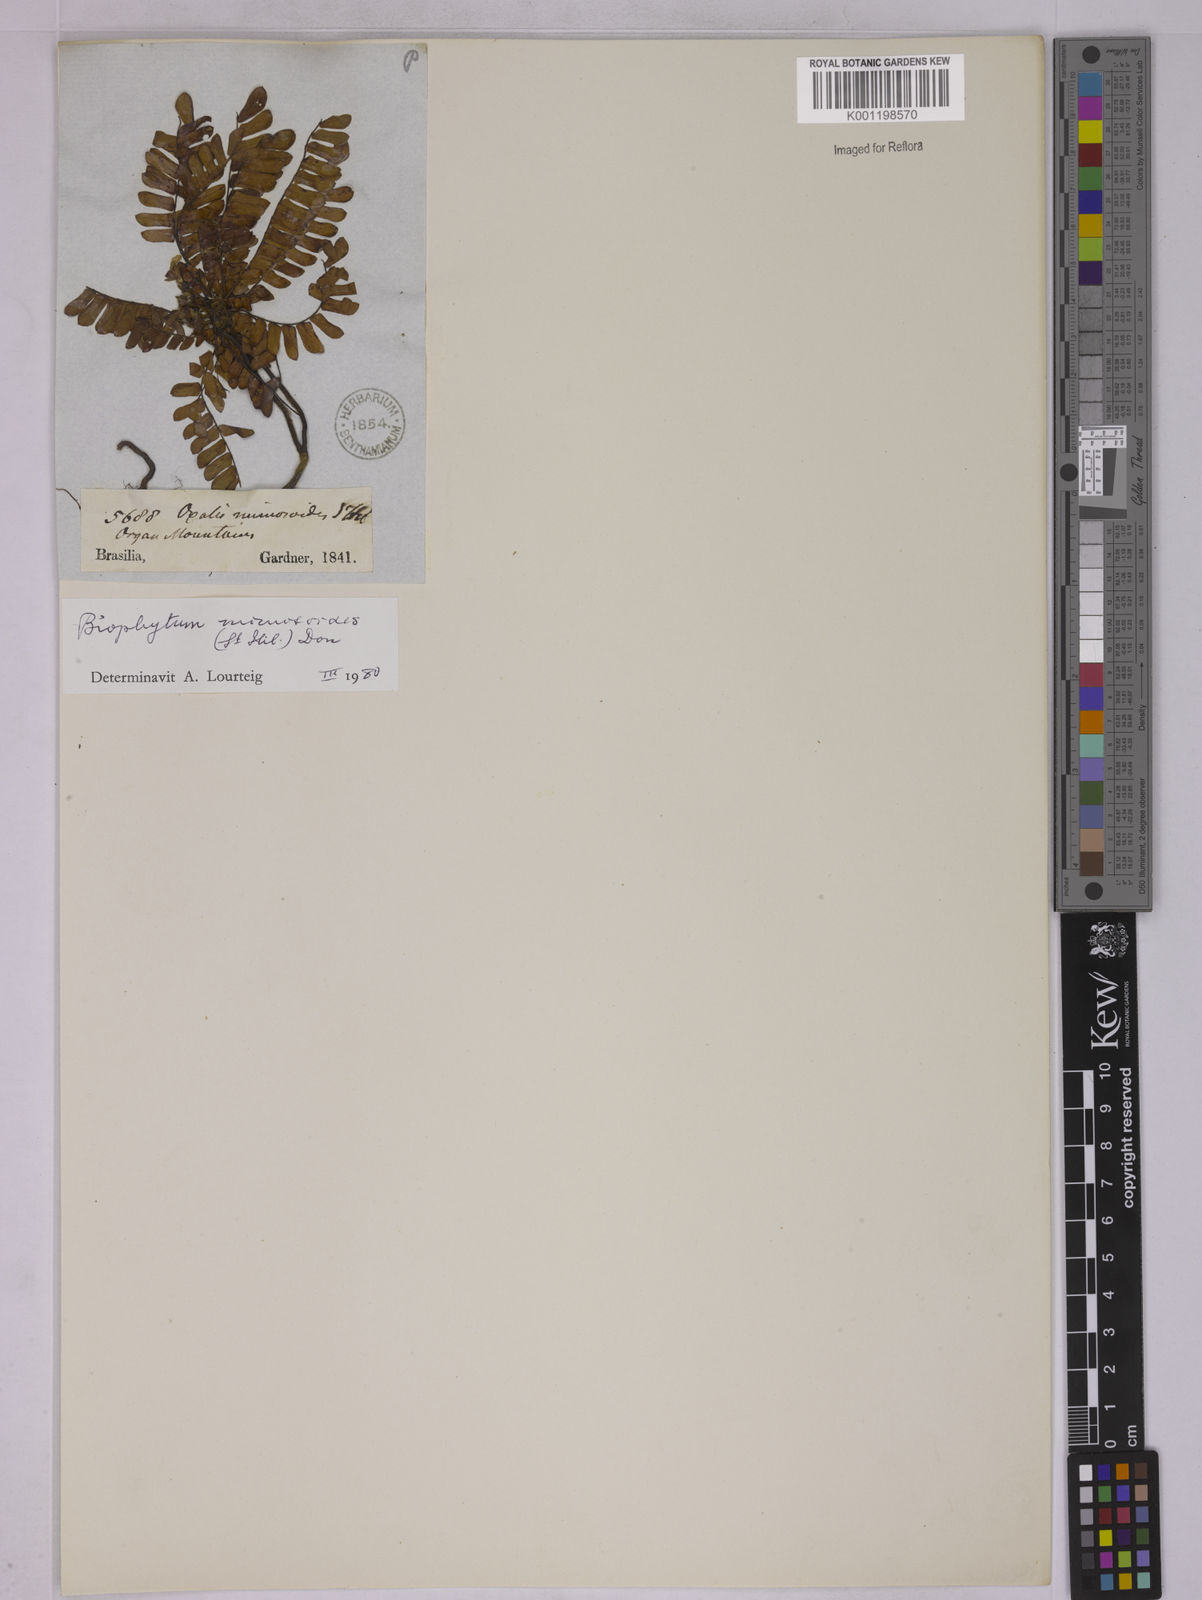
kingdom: Plantae
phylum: Tracheophyta
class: Magnoliopsida
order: Oxalidales
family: Oxalidaceae
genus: Biophytum
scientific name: Biophytum mimosoides
